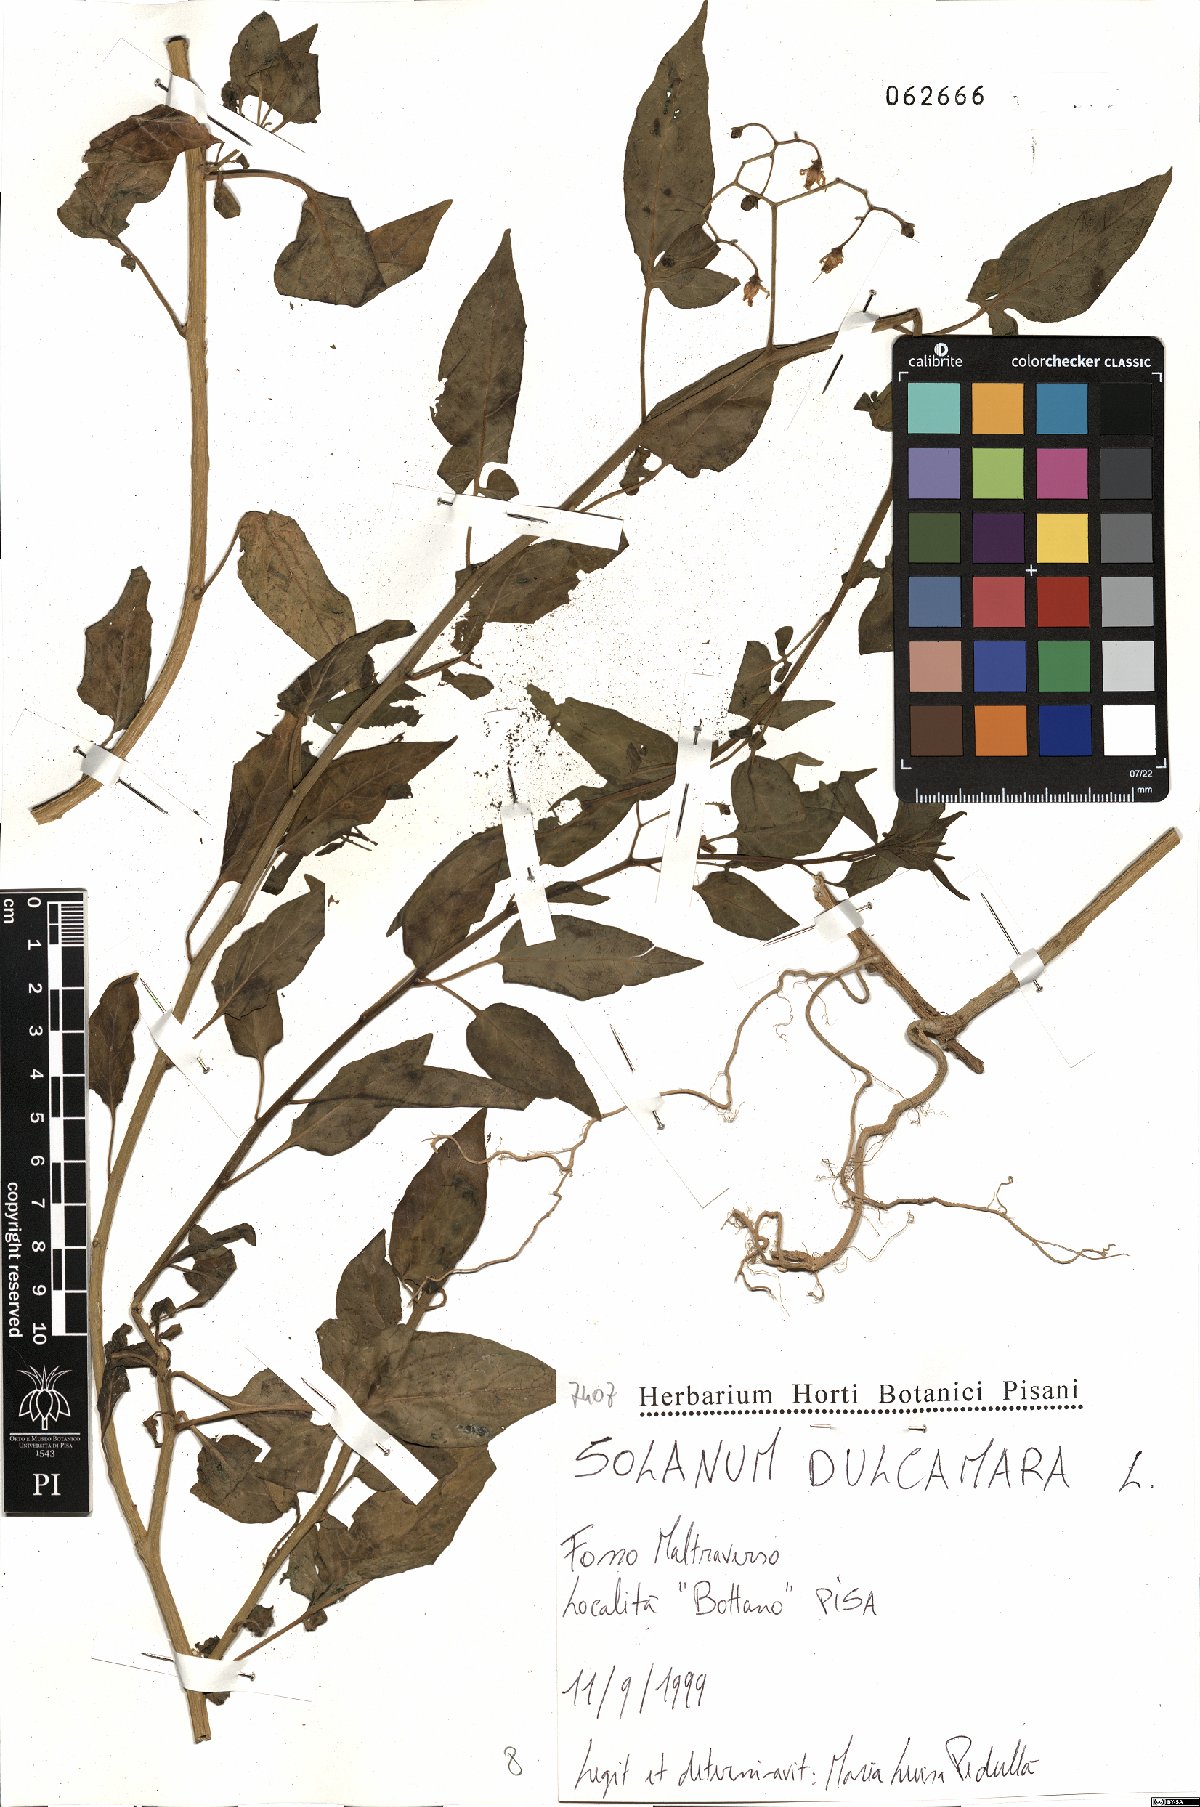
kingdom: Plantae
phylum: Tracheophyta
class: Magnoliopsida
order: Solanales
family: Solanaceae
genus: Solanum
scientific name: Solanum dulcamara
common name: Climbing nightshade
